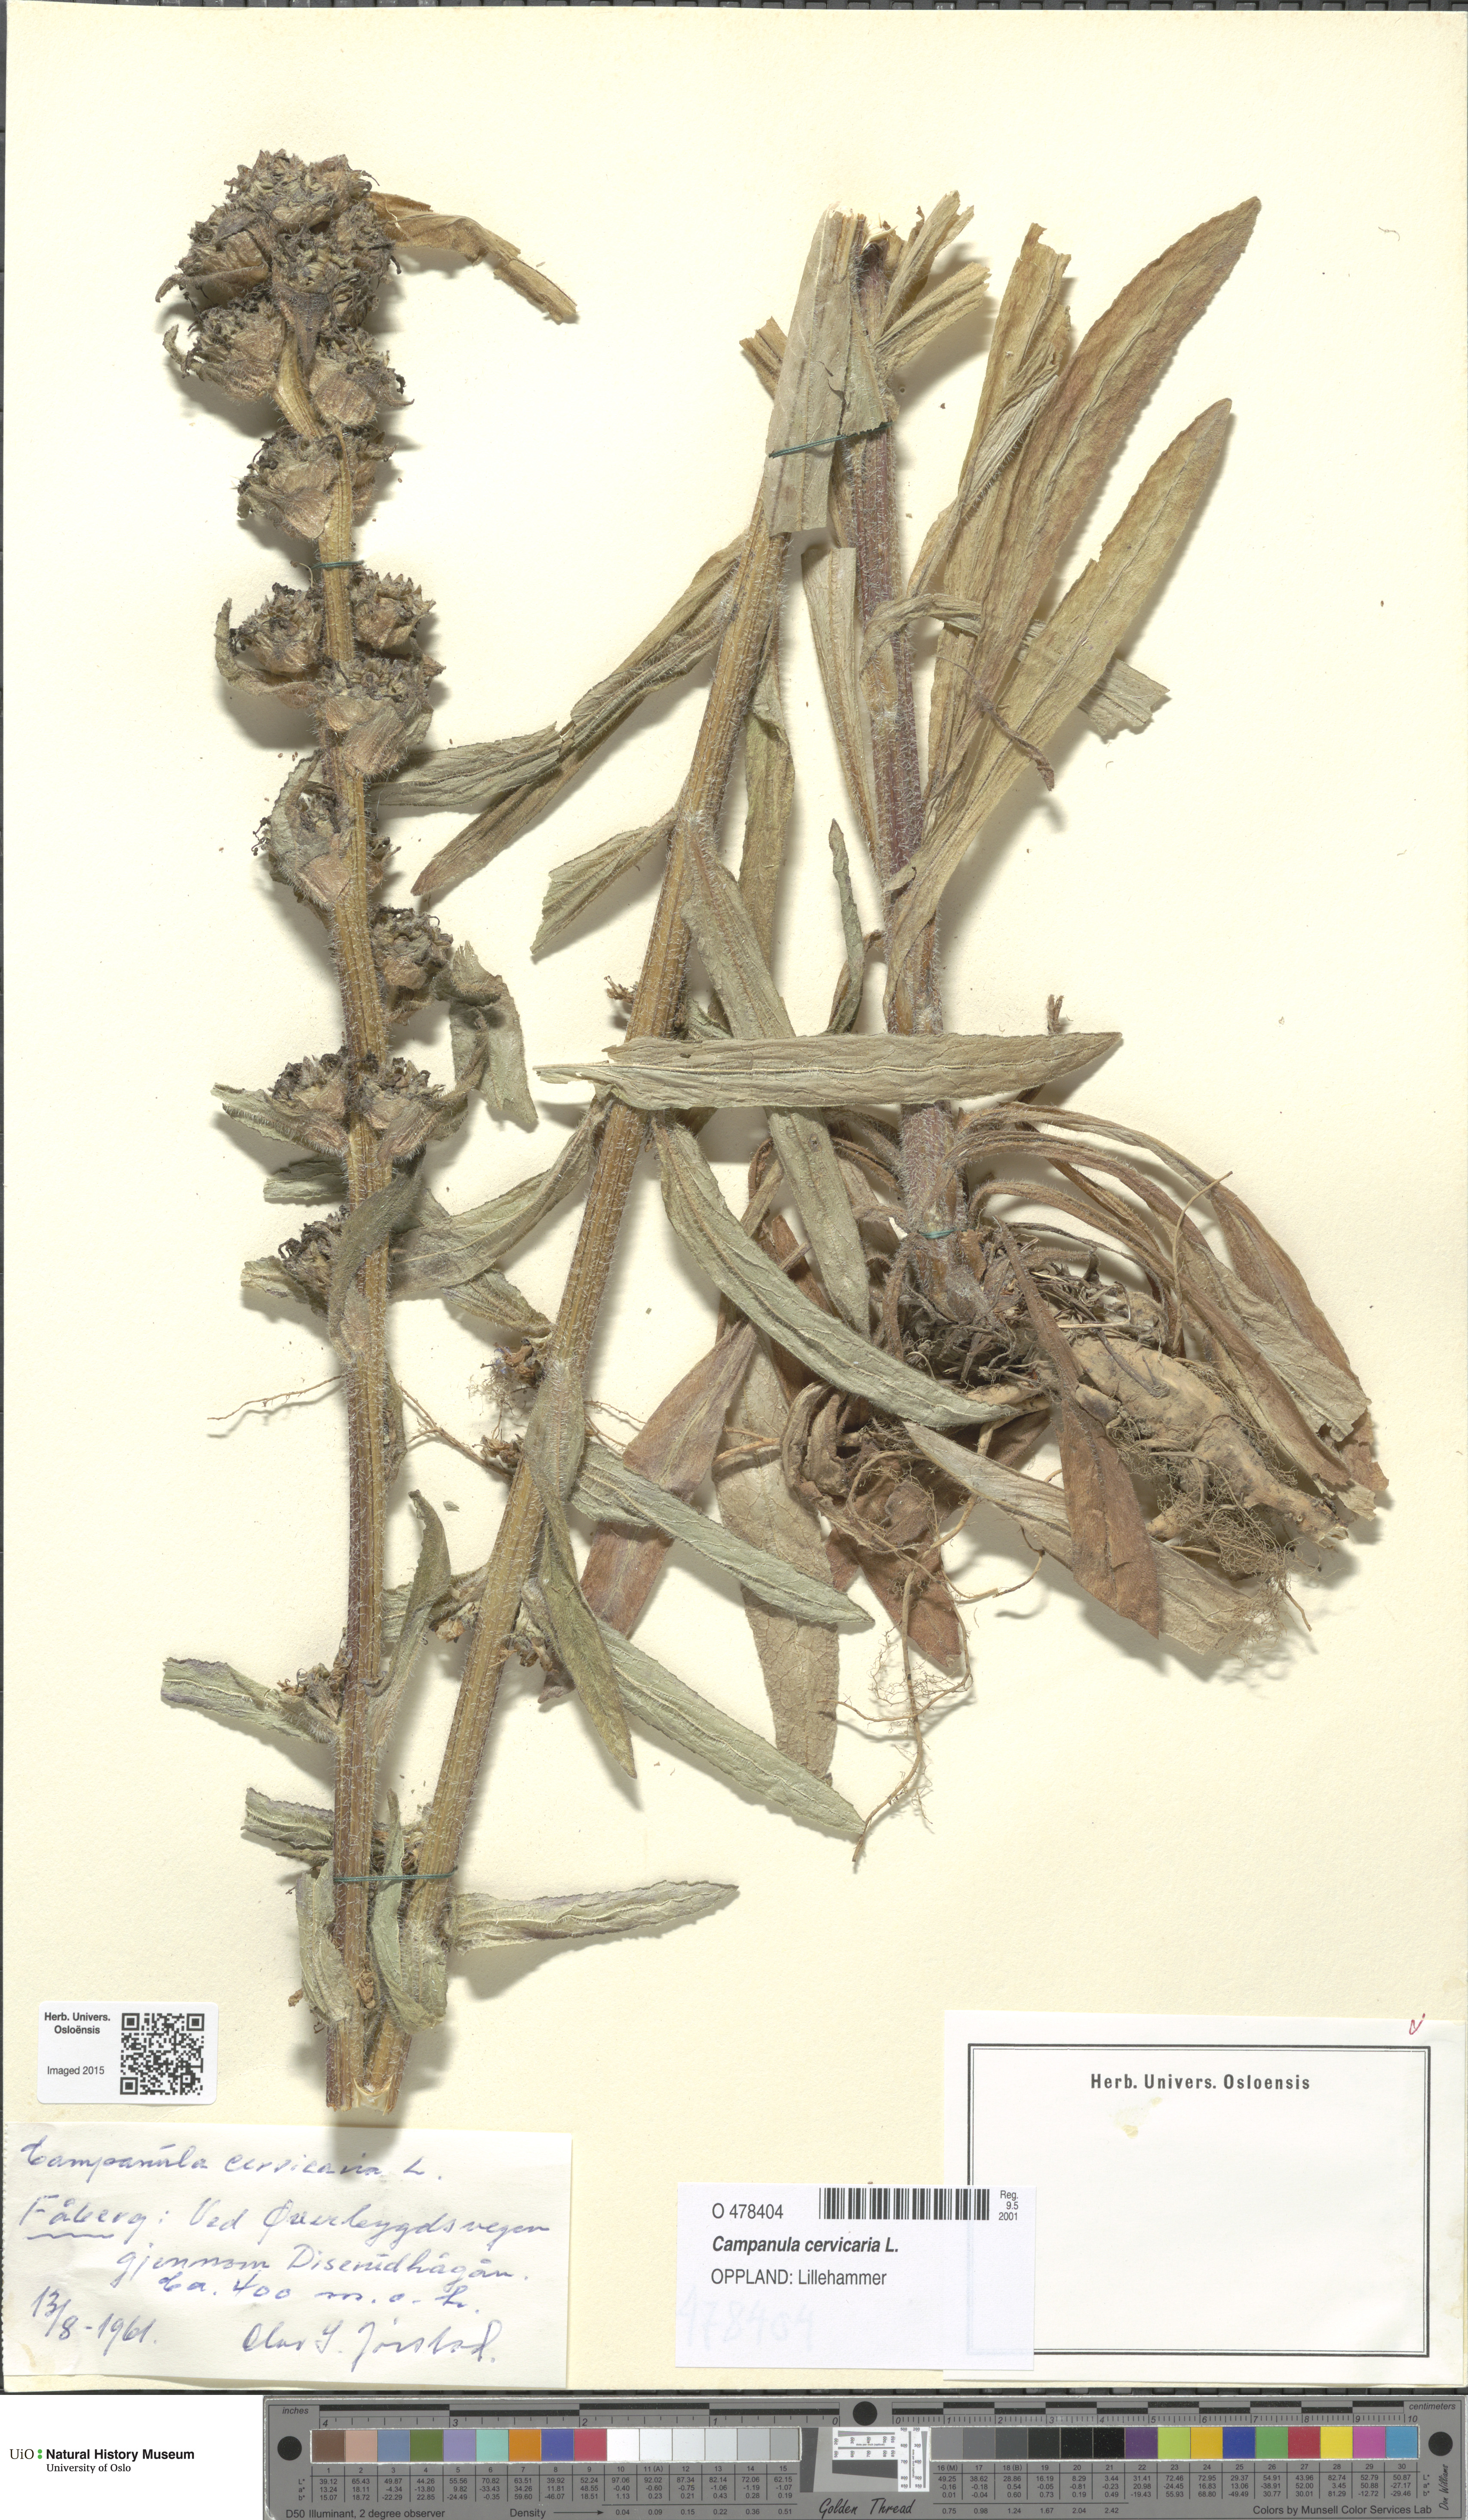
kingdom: Plantae
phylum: Tracheophyta
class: Magnoliopsida
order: Asterales
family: Campanulaceae
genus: Campanula
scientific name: Campanula cervicaria
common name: Bristly bellflower
